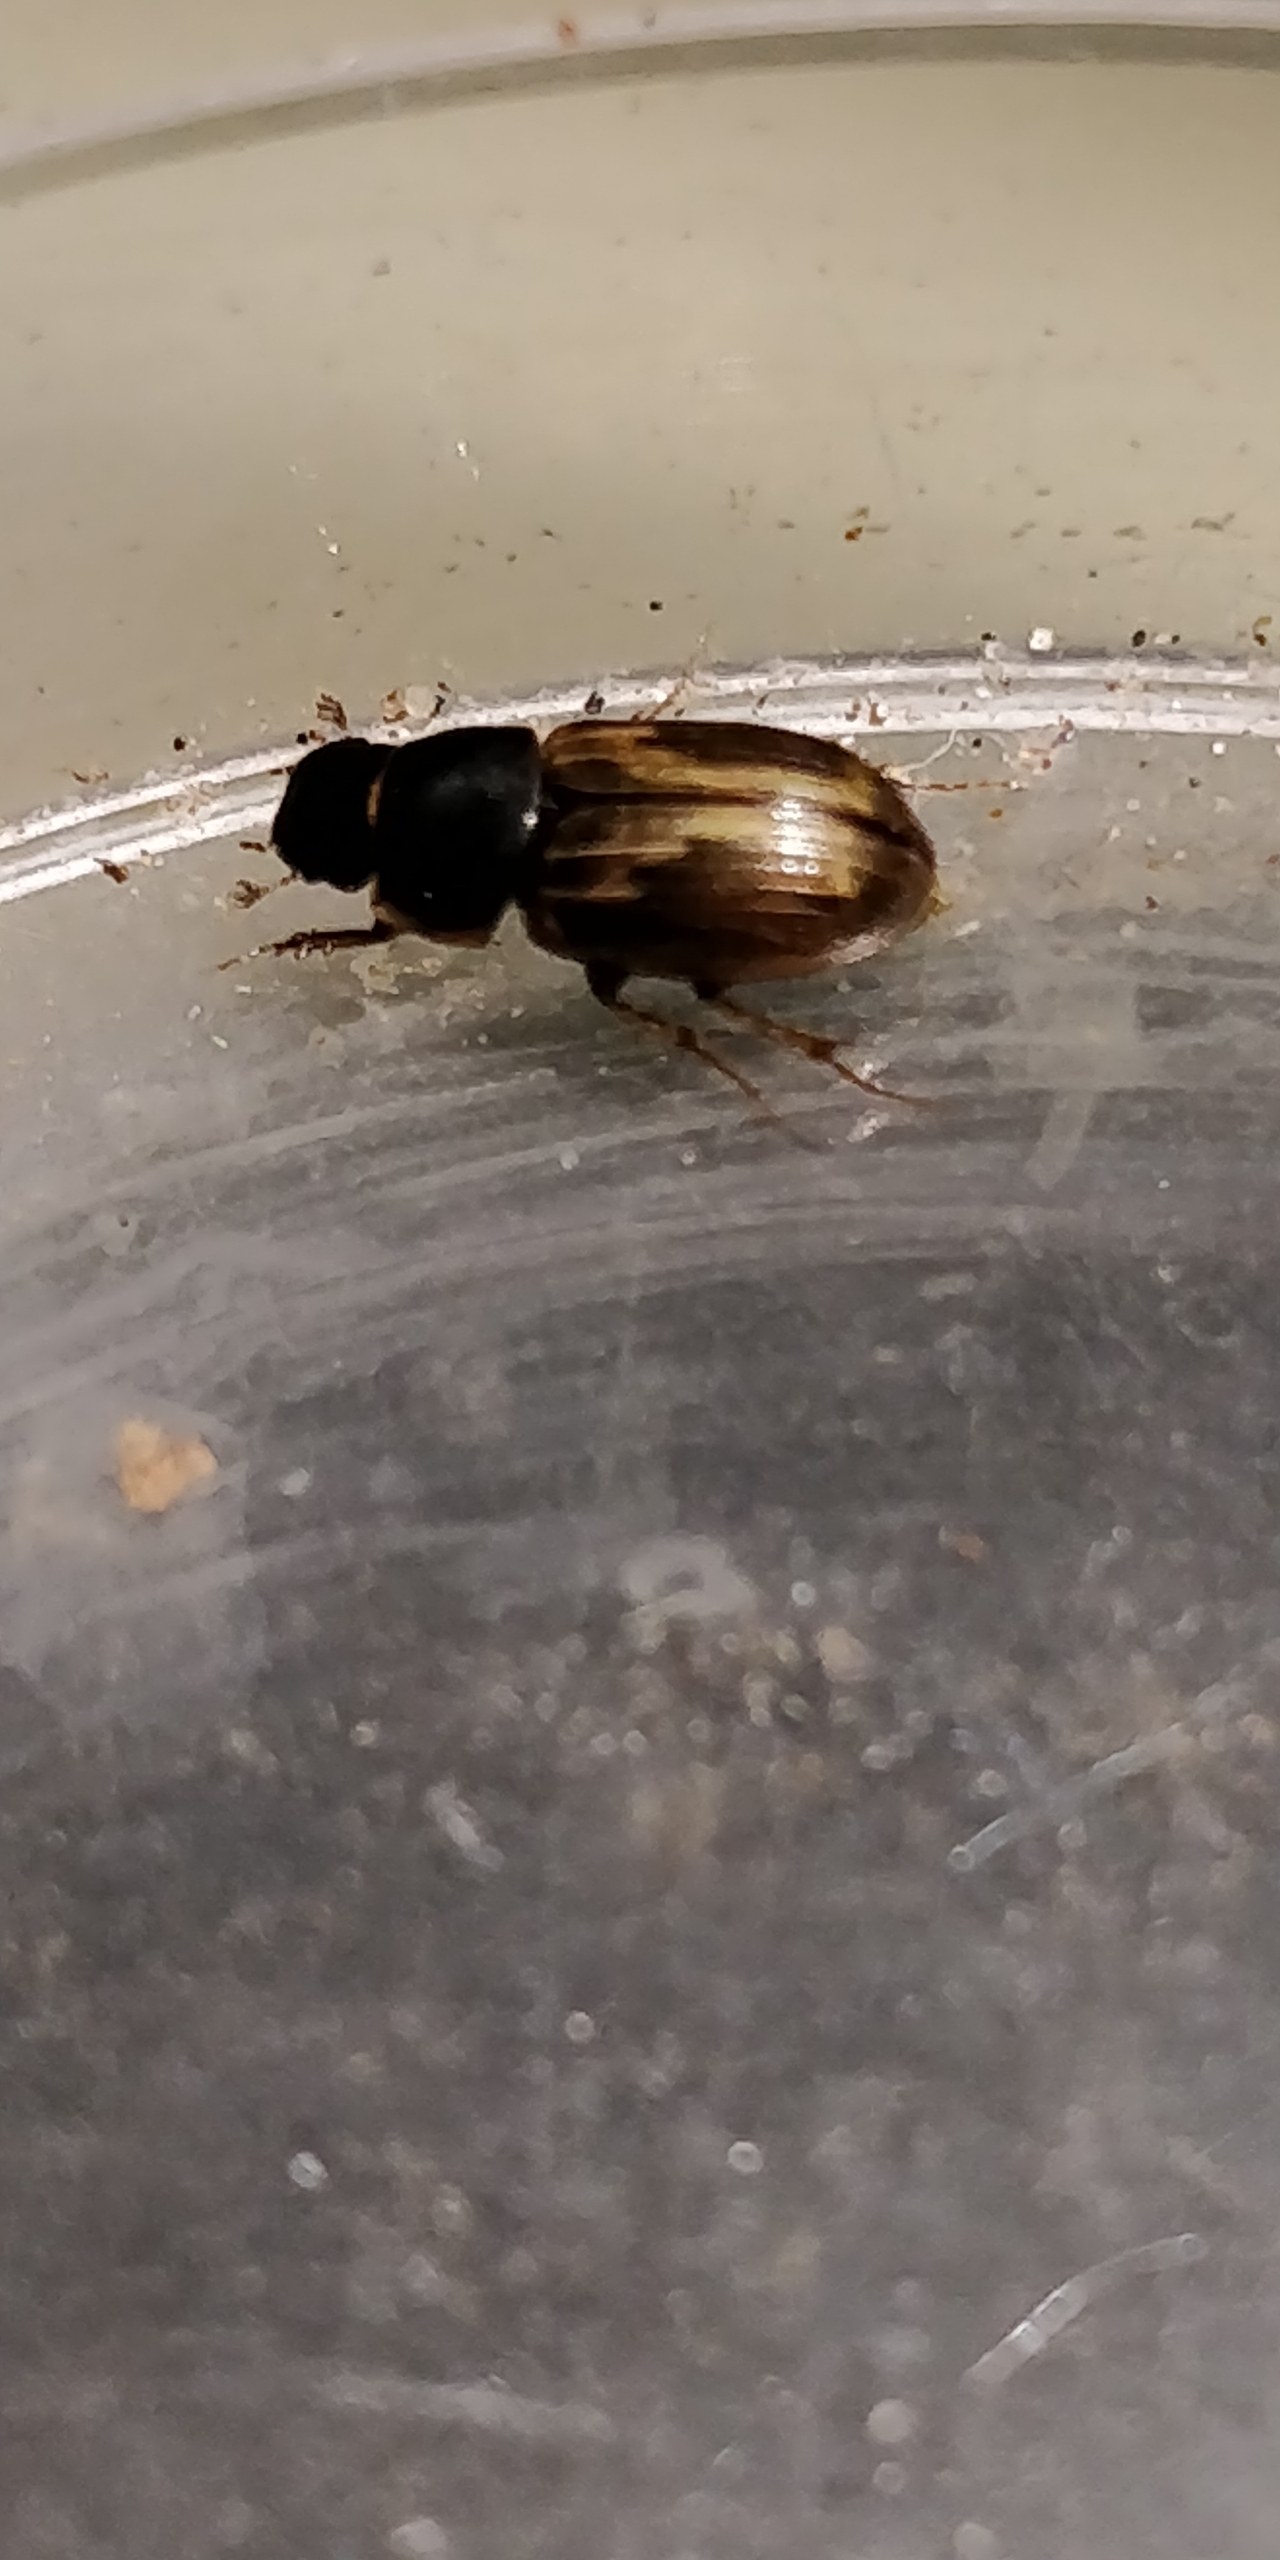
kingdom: Animalia
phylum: Arthropoda
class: Insecta
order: Coleoptera
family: Scarabaeidae
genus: Melinopterus
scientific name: Melinopterus sphacelatus
